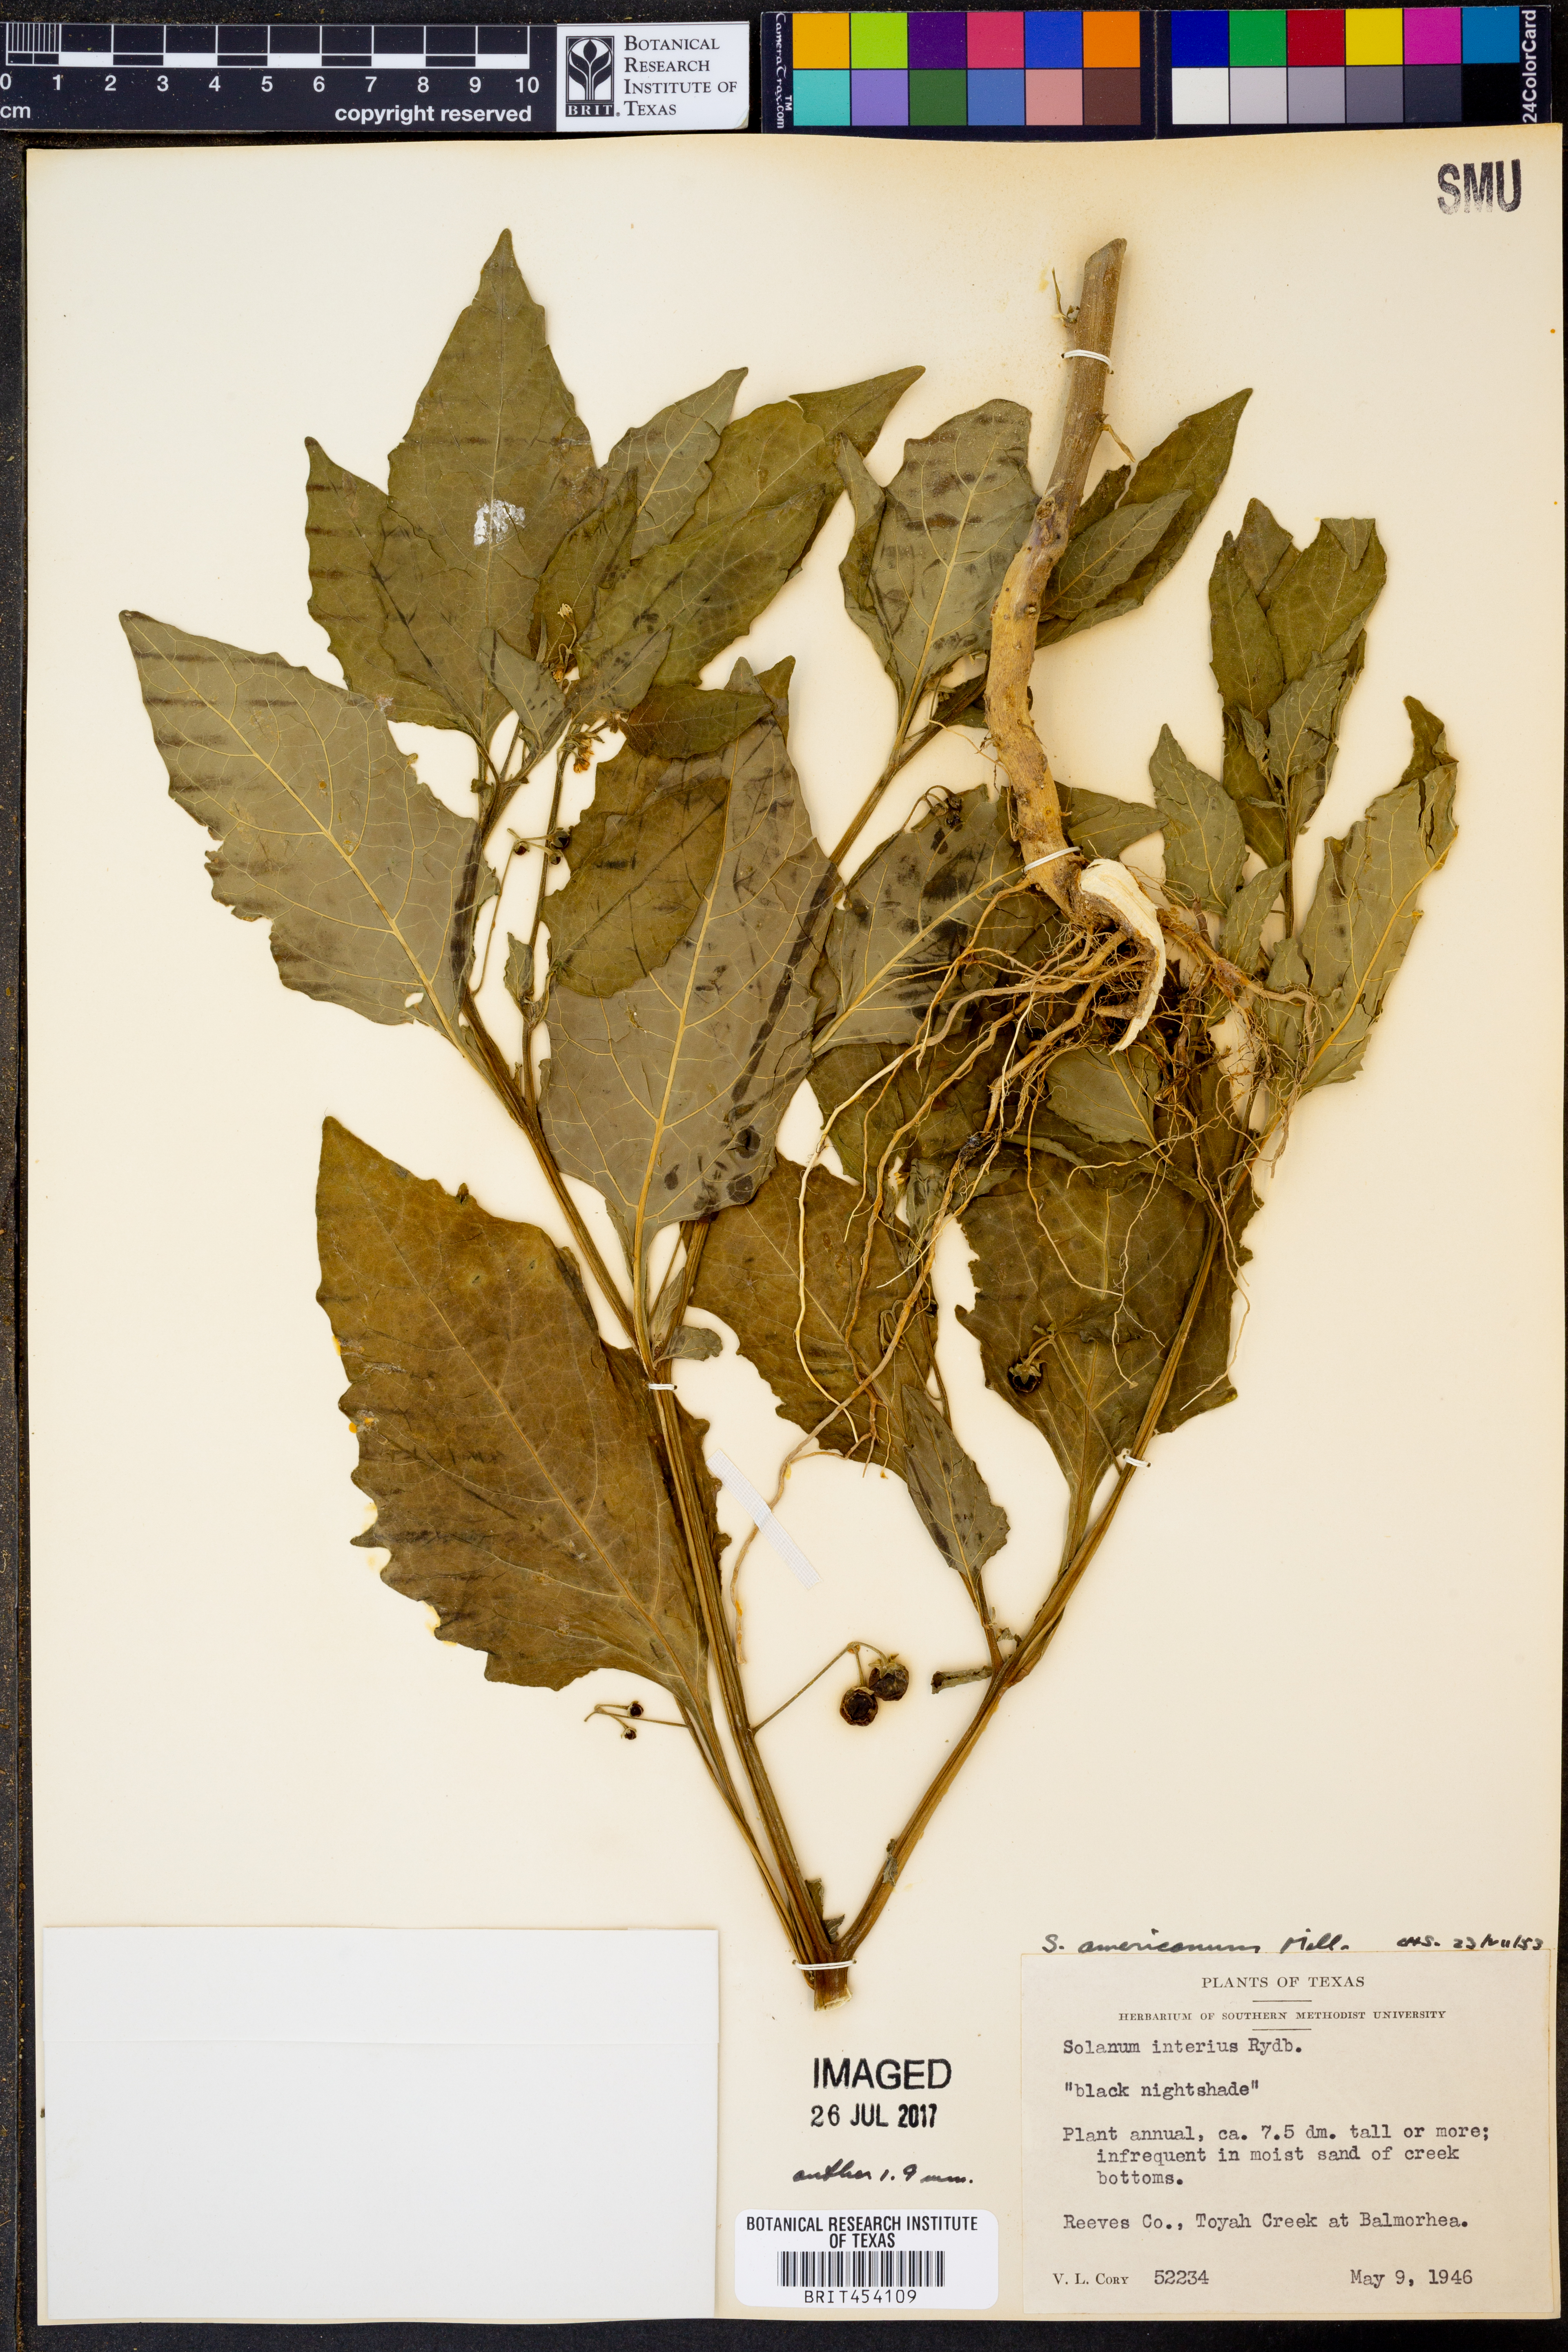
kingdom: Plantae
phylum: Tracheophyta
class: Magnoliopsida
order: Solanales
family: Solanaceae
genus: Solanum
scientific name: Solanum americanum
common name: American black nightshade
